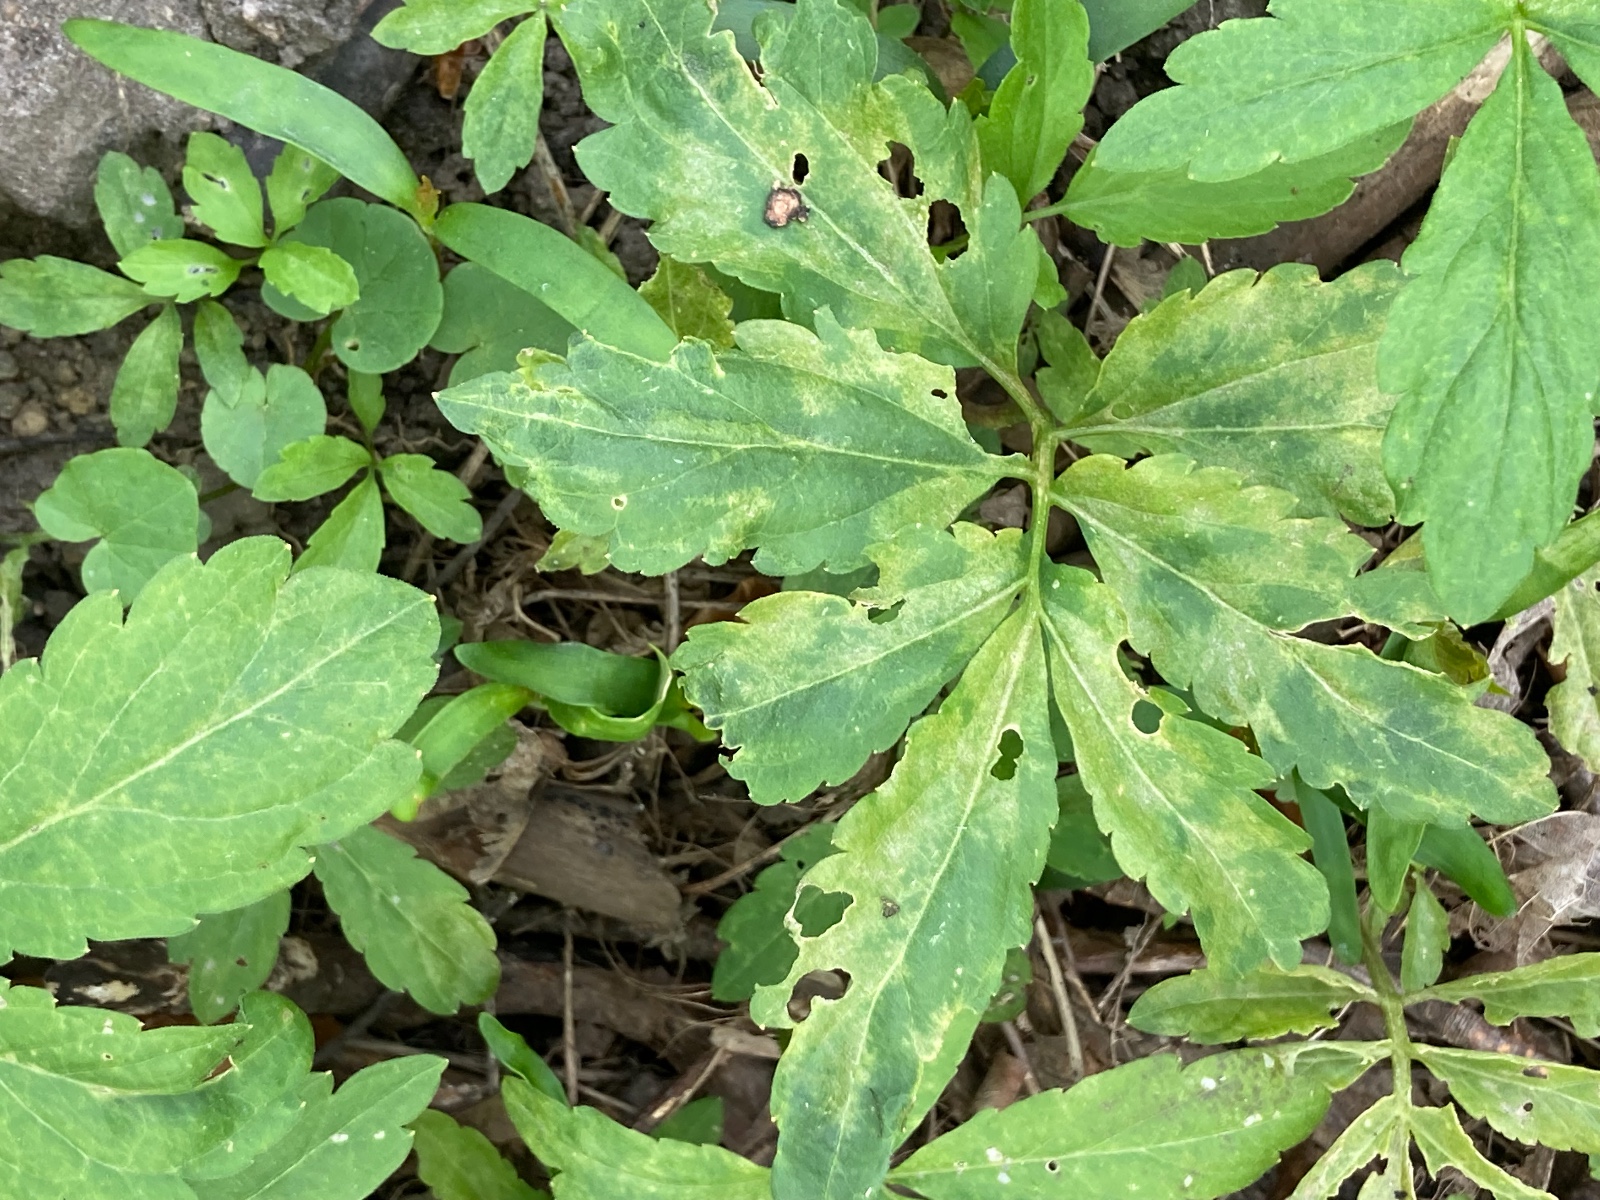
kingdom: Chromista
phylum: Oomycota
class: Peronosporea
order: Peronosporales
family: Peronosporaceae
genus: Hyaloperonospora
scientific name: Hyaloperonospora dentariae
